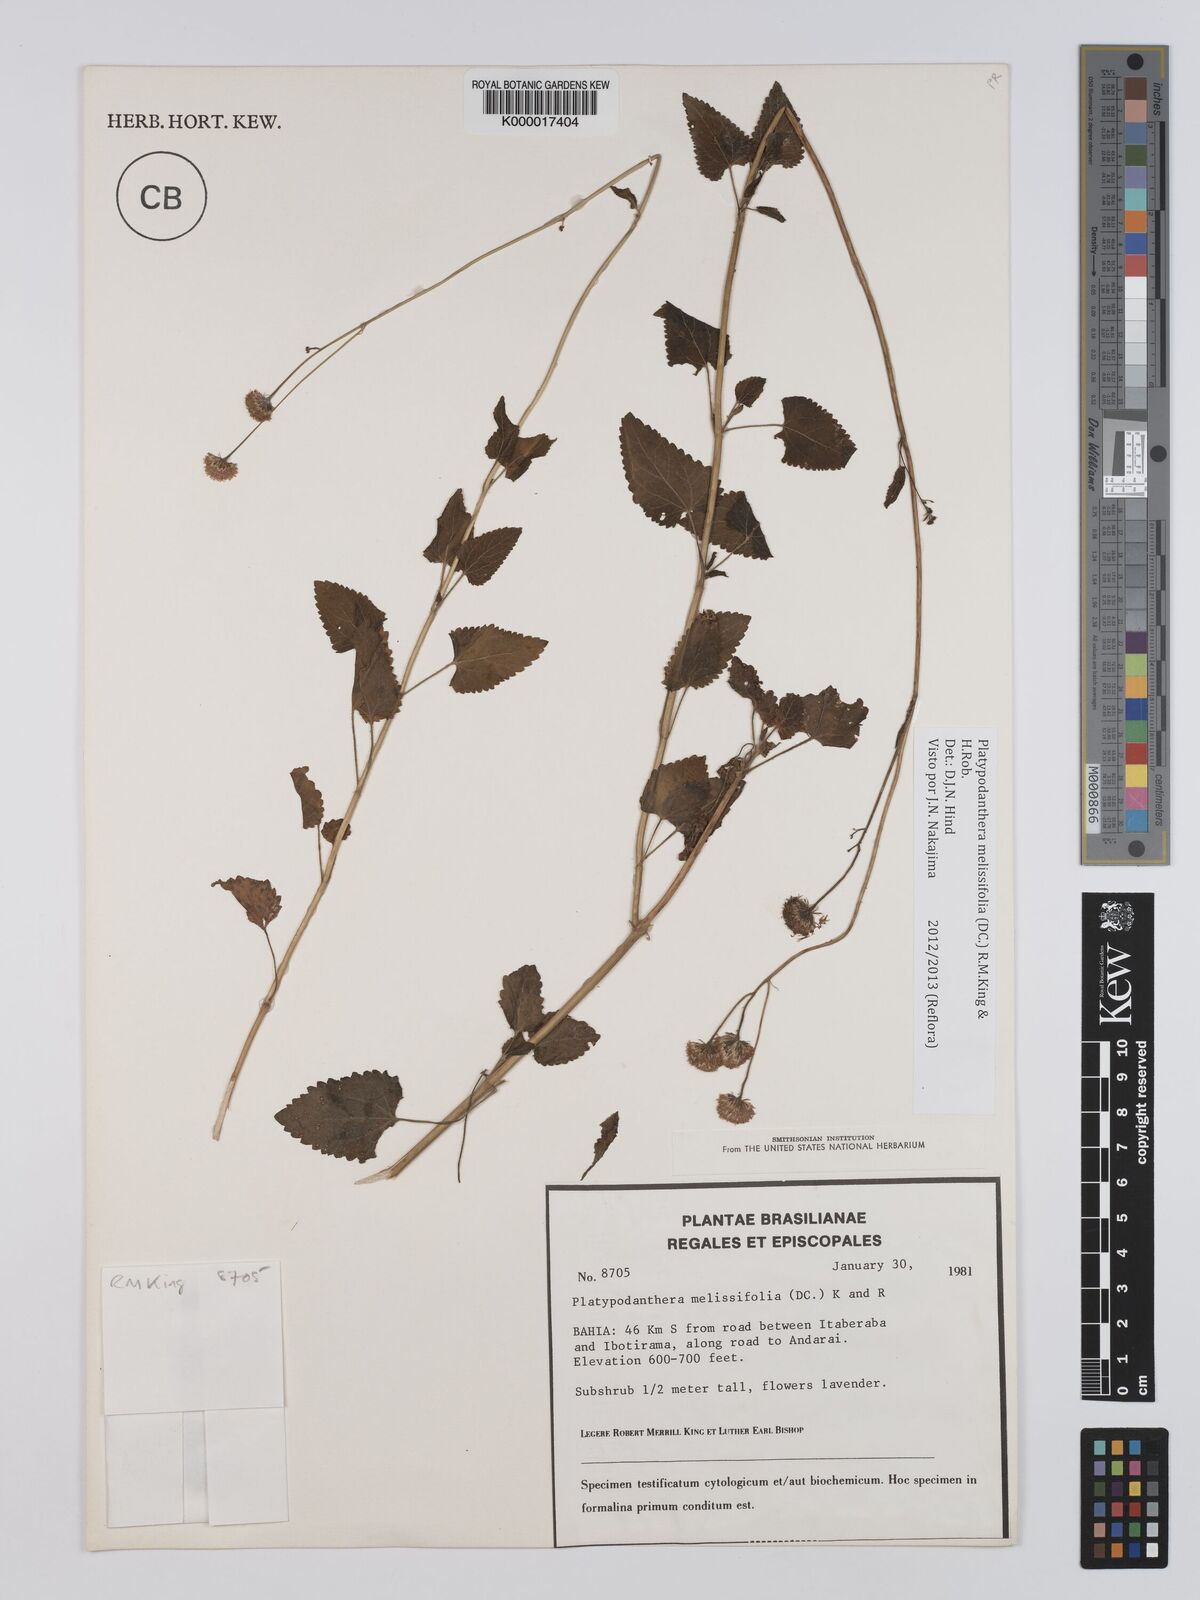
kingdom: Plantae
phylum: Tracheophyta
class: Magnoliopsida
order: Asterales
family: Asteraceae
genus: Platypodanthera
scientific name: Platypodanthera melissifolia
